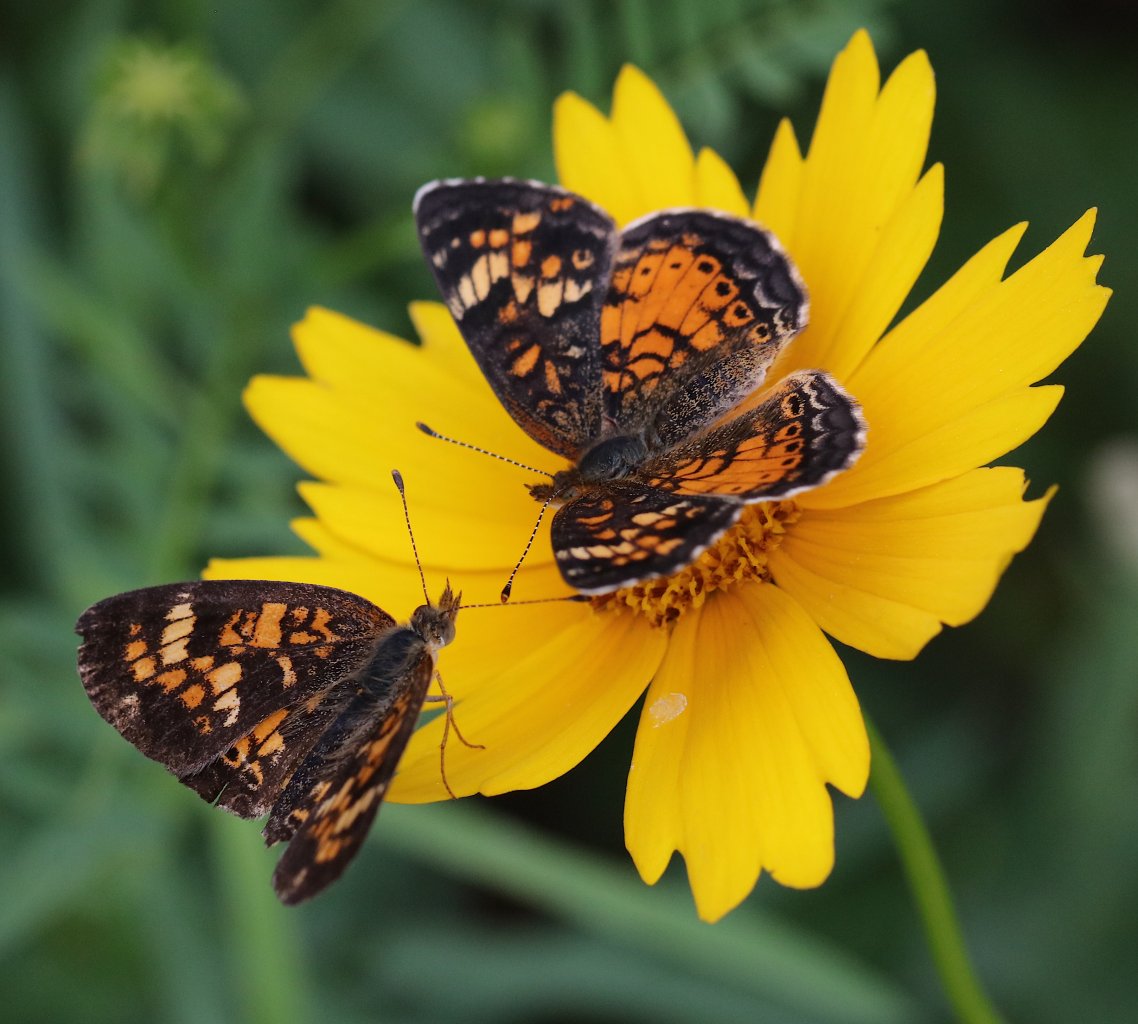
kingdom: Animalia
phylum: Arthropoda
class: Insecta
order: Lepidoptera
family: Nymphalidae
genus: Phyciodes
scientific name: Phyciodes tharos
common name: Northern Crescent
